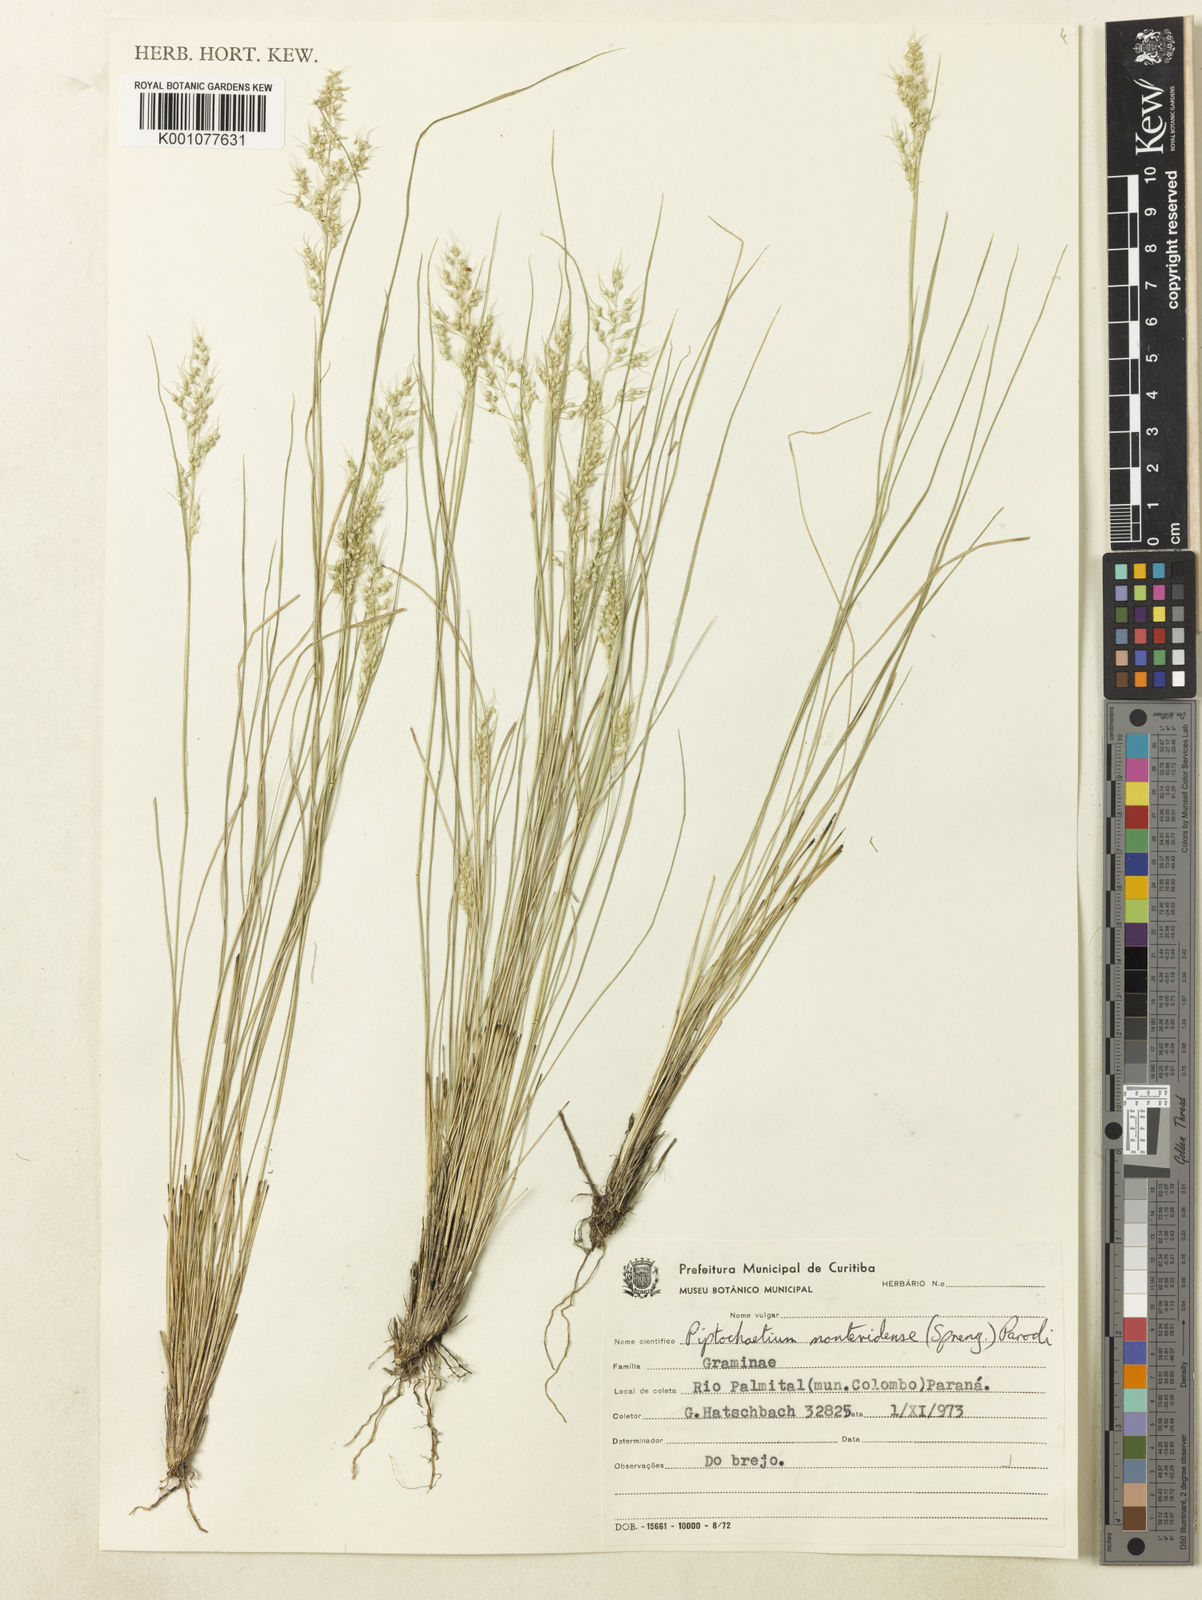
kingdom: Plantae
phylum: Tracheophyta
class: Liliopsida
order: Poales
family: Poaceae
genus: Piptochaetium
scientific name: Piptochaetium montevidense
